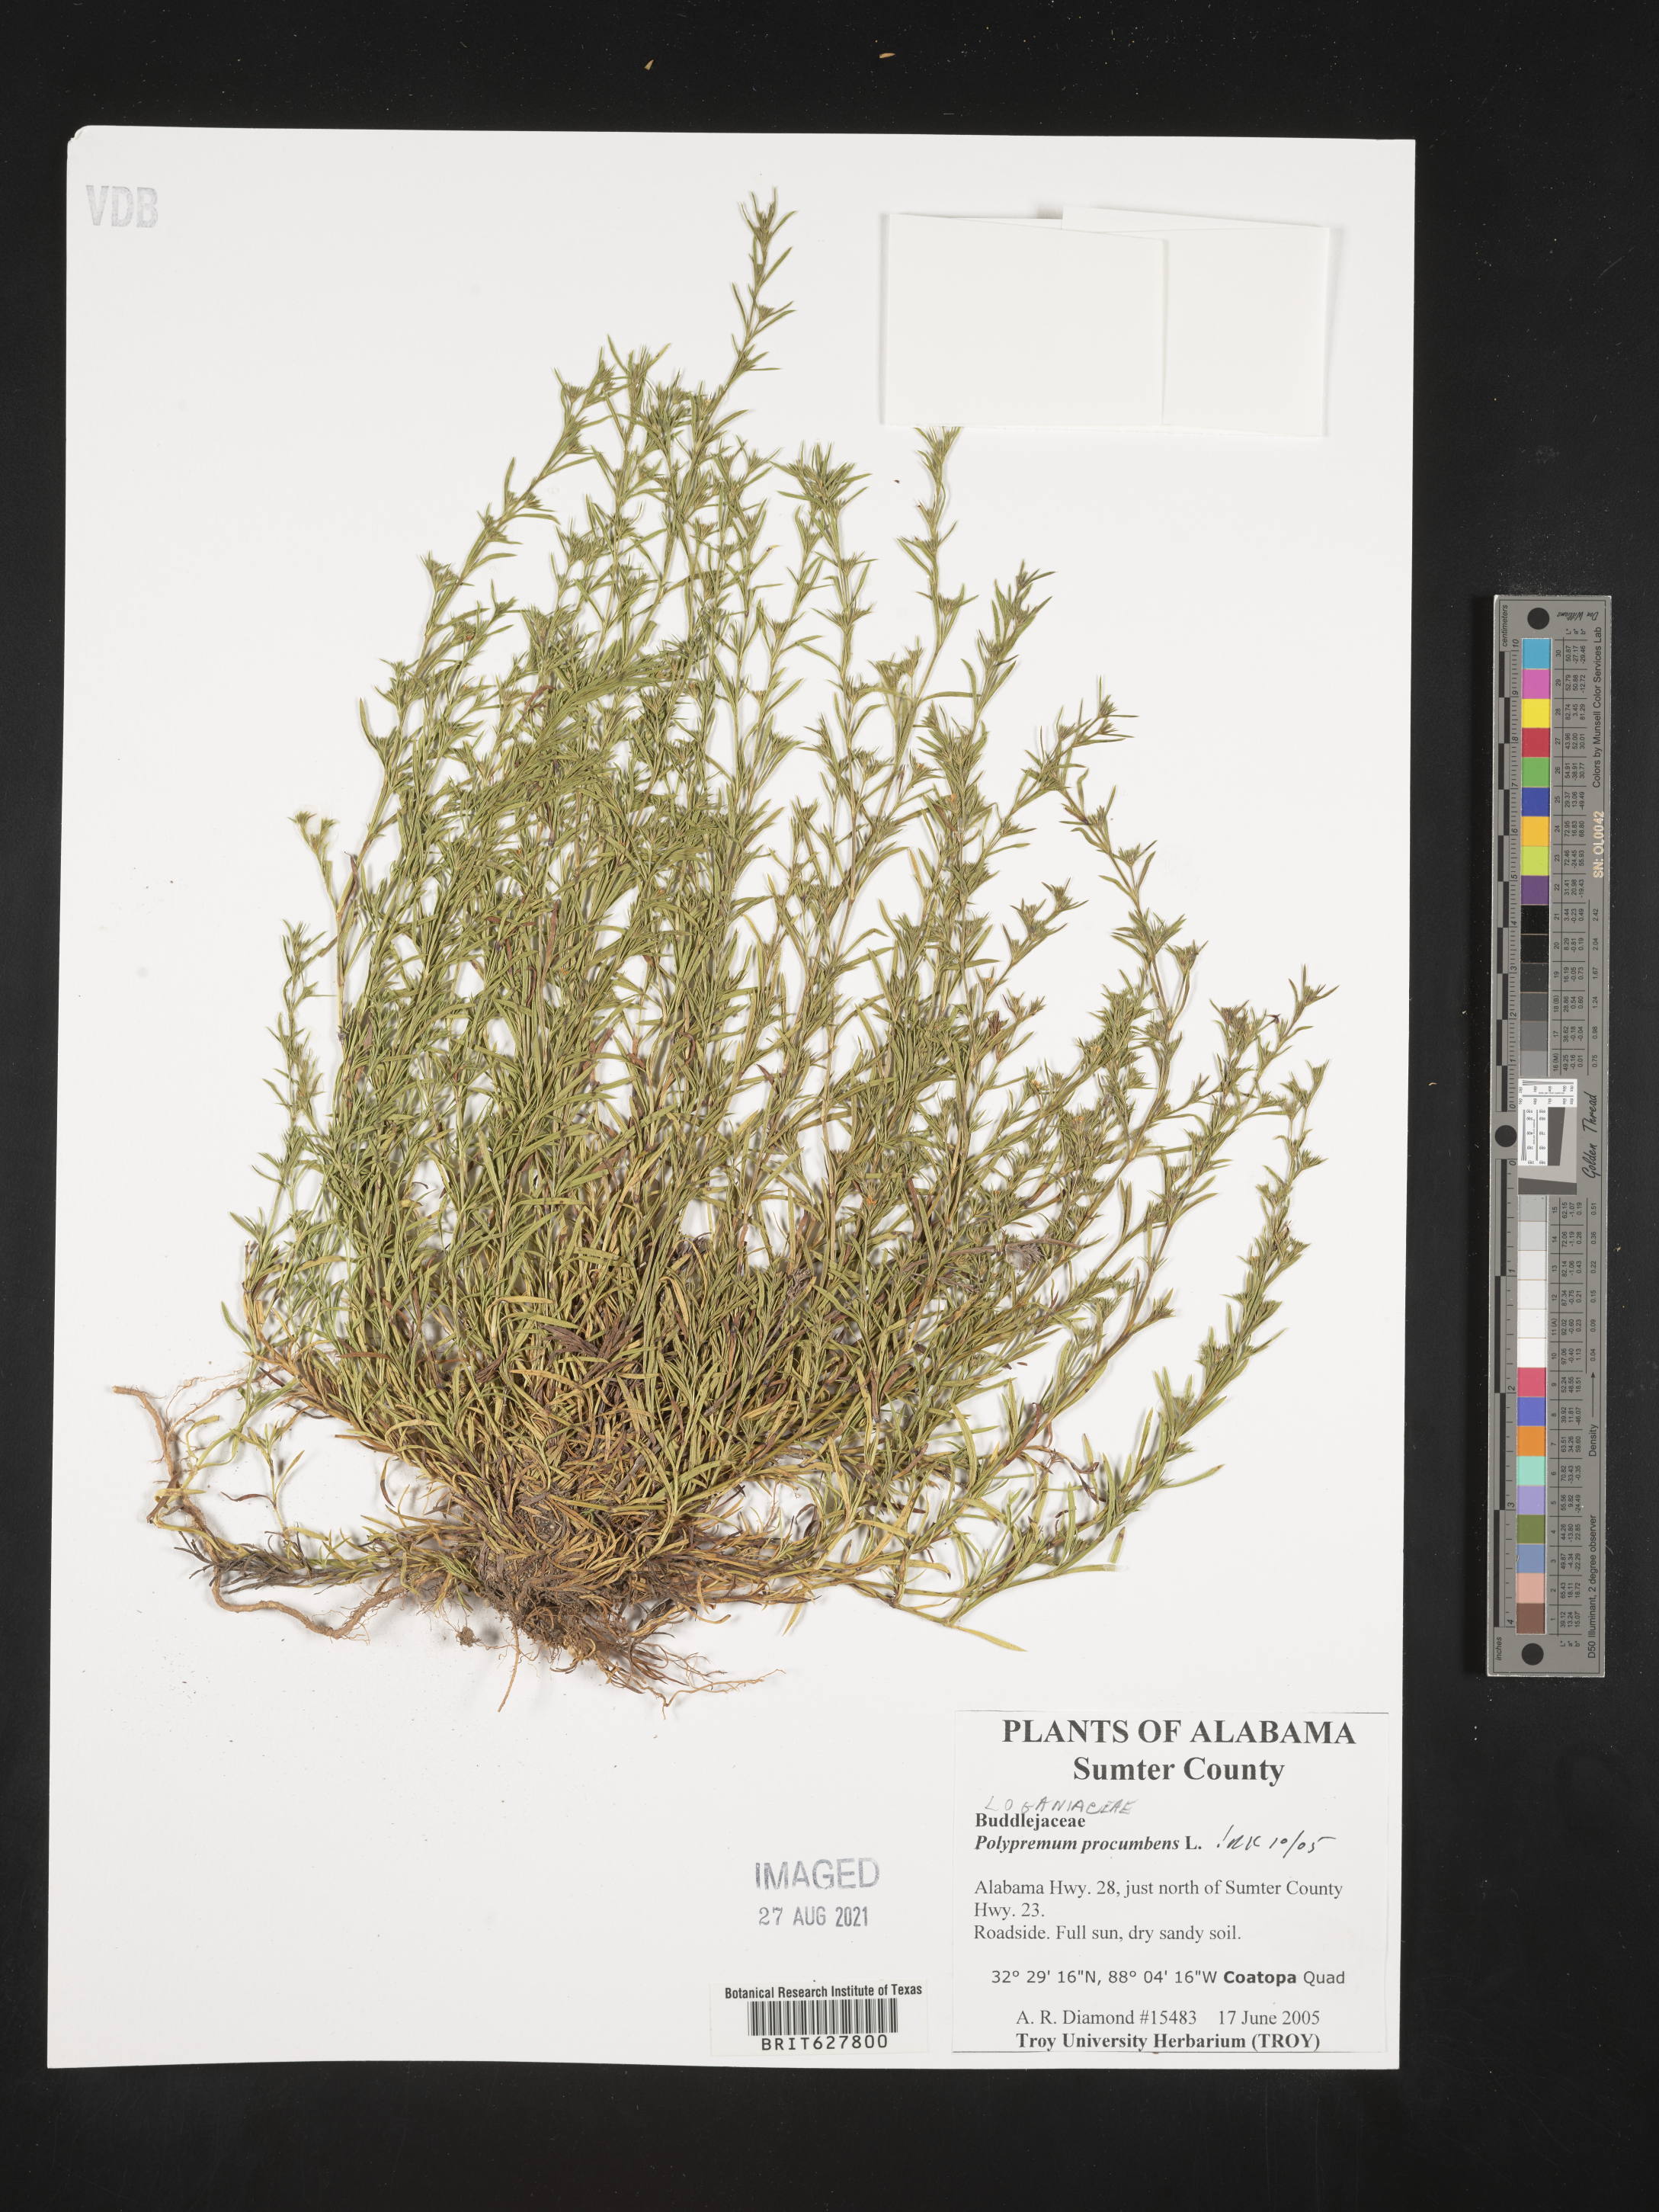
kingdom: Plantae
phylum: Tracheophyta
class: Magnoliopsida
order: Lamiales
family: Tetrachondraceae
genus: Polypremum
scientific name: Polypremum procumbens
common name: Juniper-leaf
